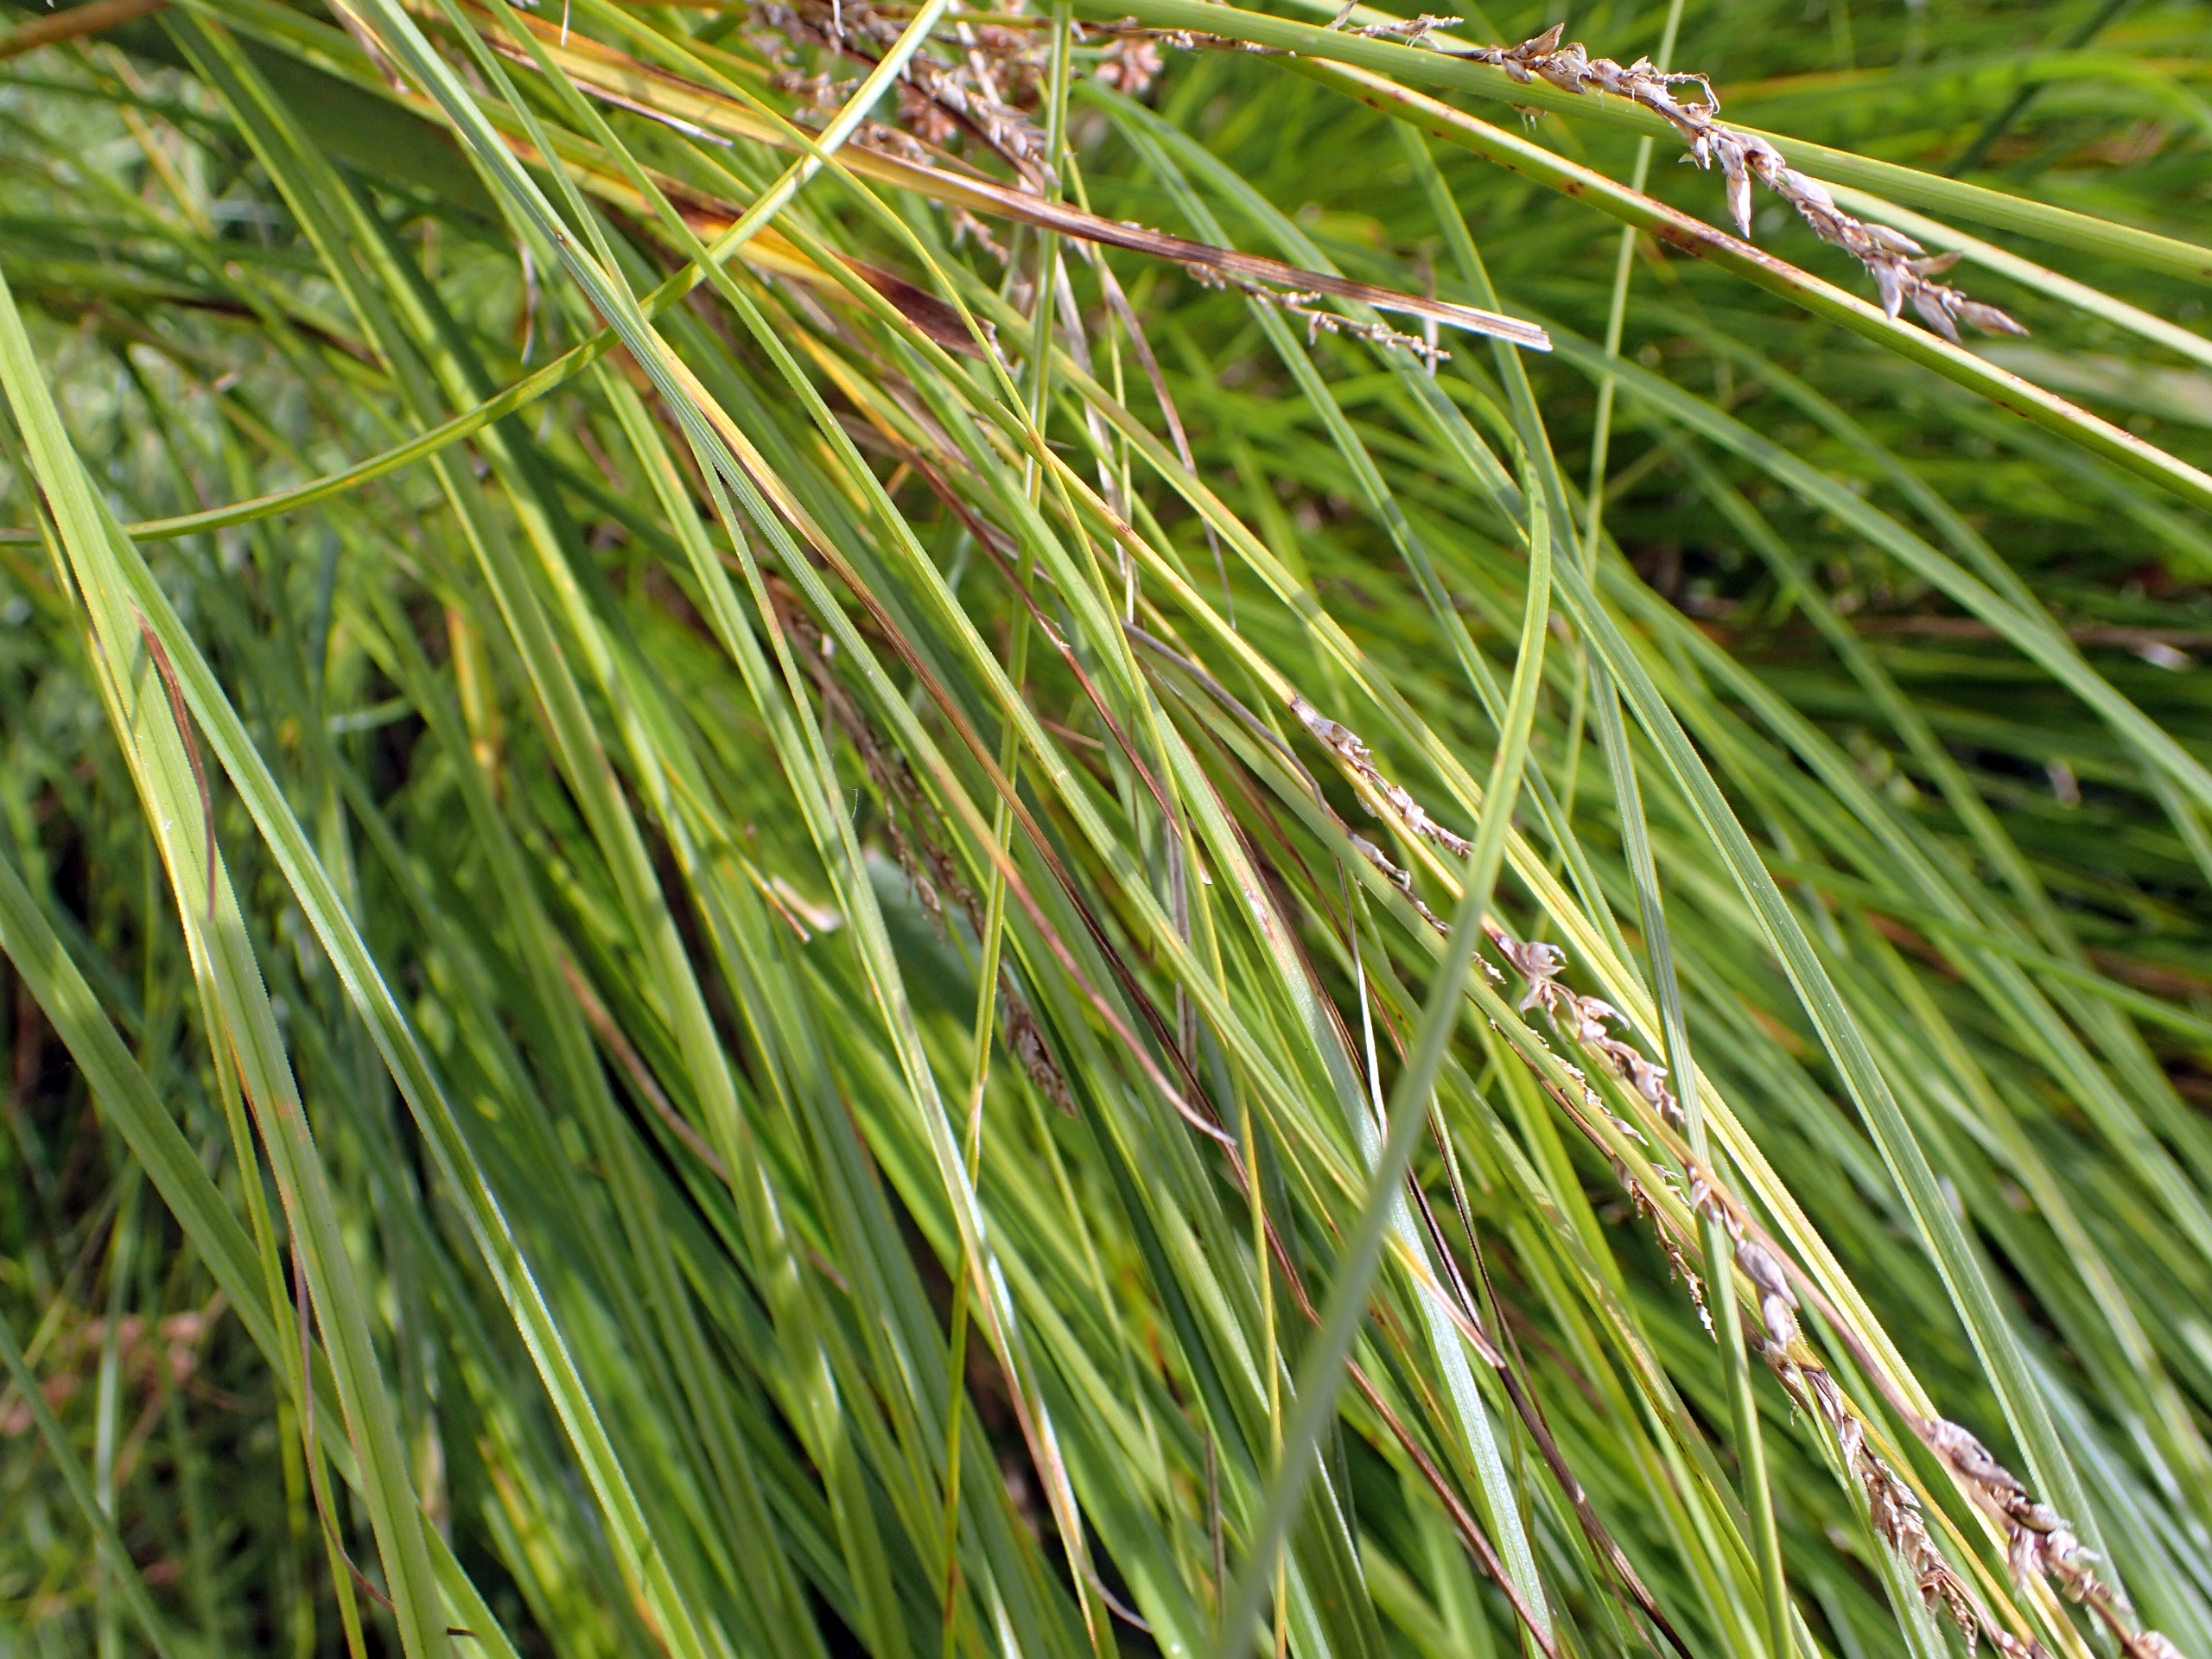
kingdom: Plantae
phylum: Tracheophyta
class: Liliopsida
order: Poales
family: Cyperaceae
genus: Carex
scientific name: Carex paniculata
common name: Top-star
